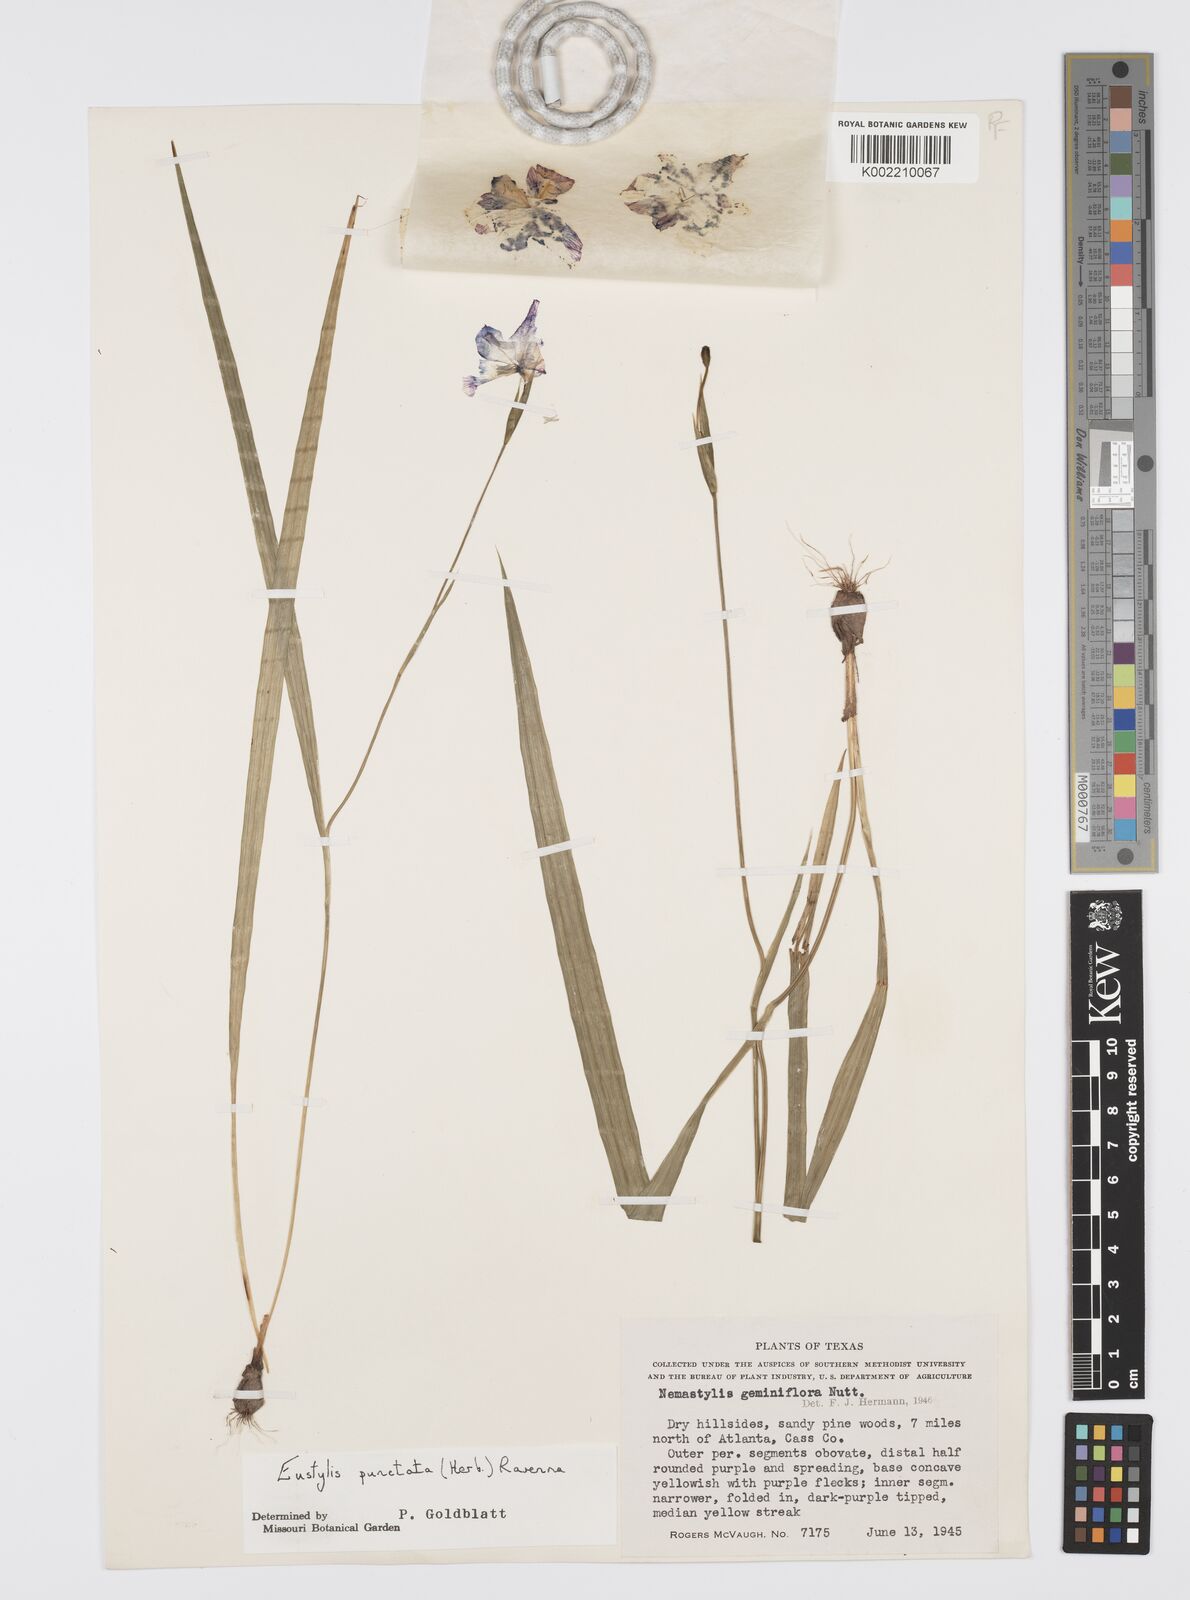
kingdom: Plantae
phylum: Tracheophyta
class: Liliopsida
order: Asparagales
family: Iridaceae
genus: Alophia
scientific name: Alophia drummondii
